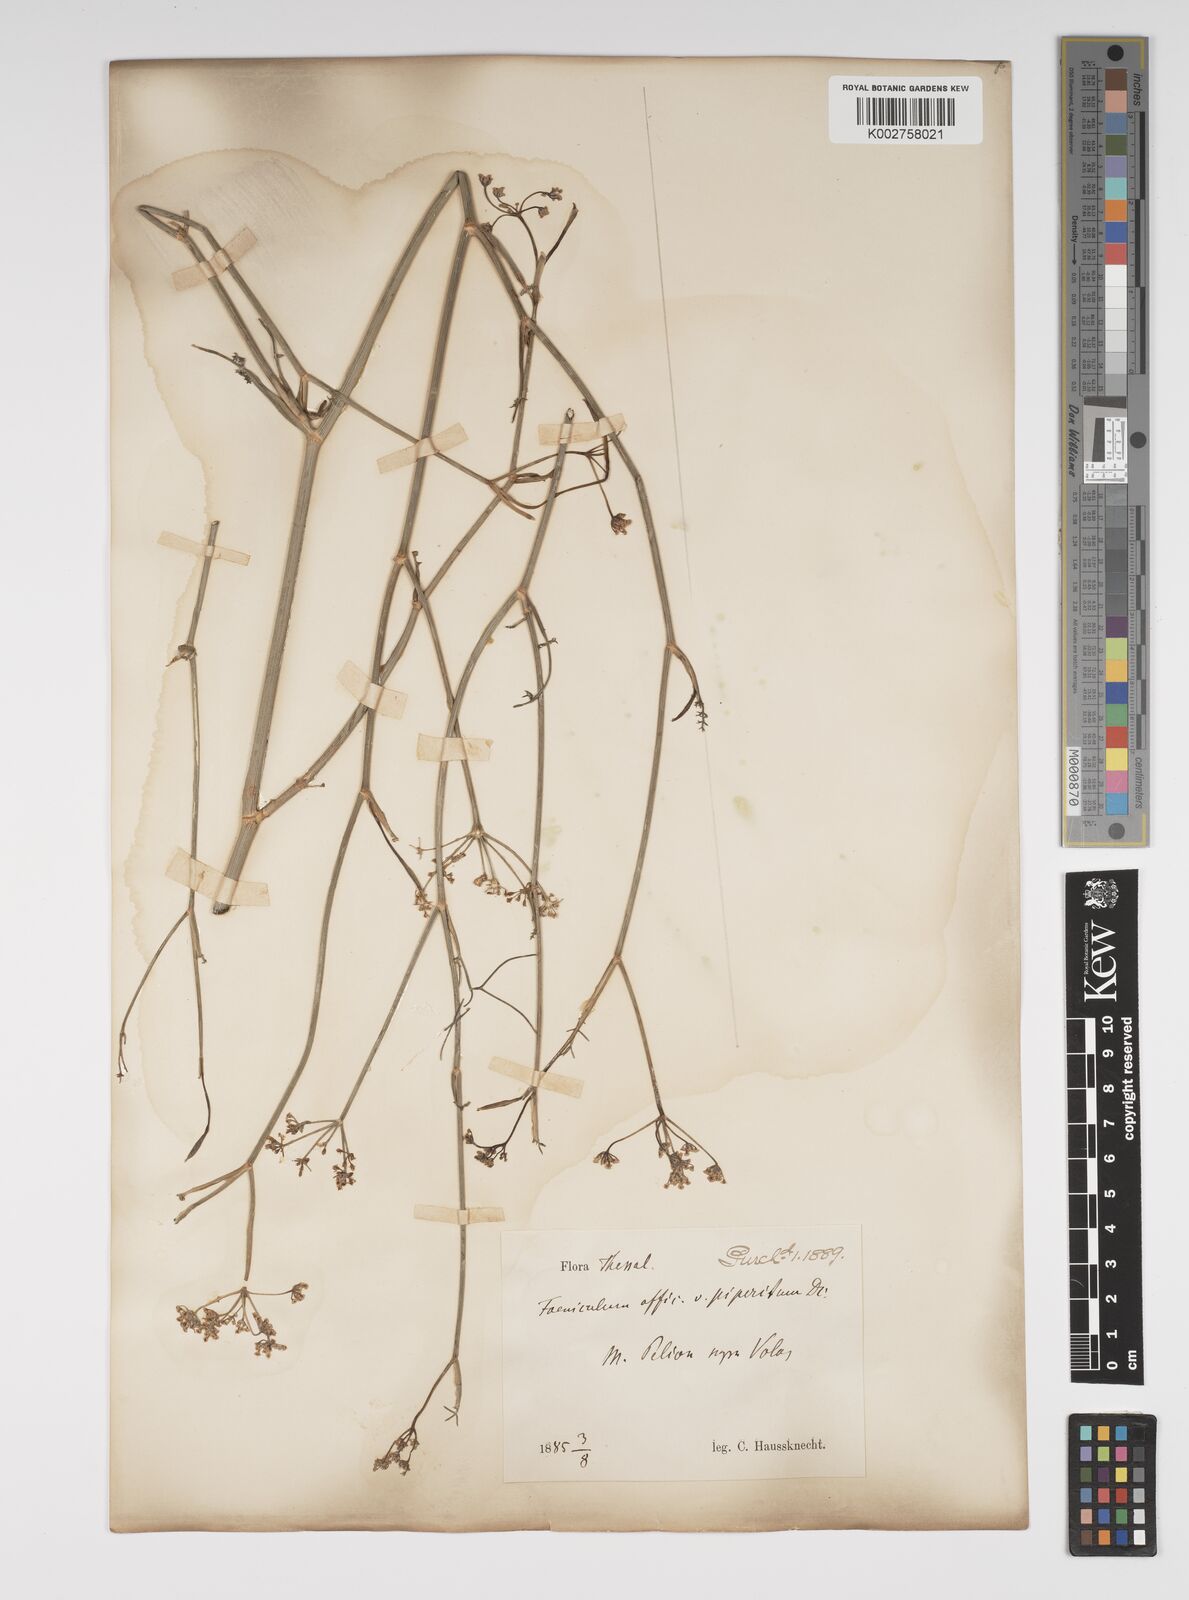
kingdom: Plantae
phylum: Tracheophyta
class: Magnoliopsida
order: Apiales
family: Apiaceae
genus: Foeniculum
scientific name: Foeniculum vulgare
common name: Fennel
